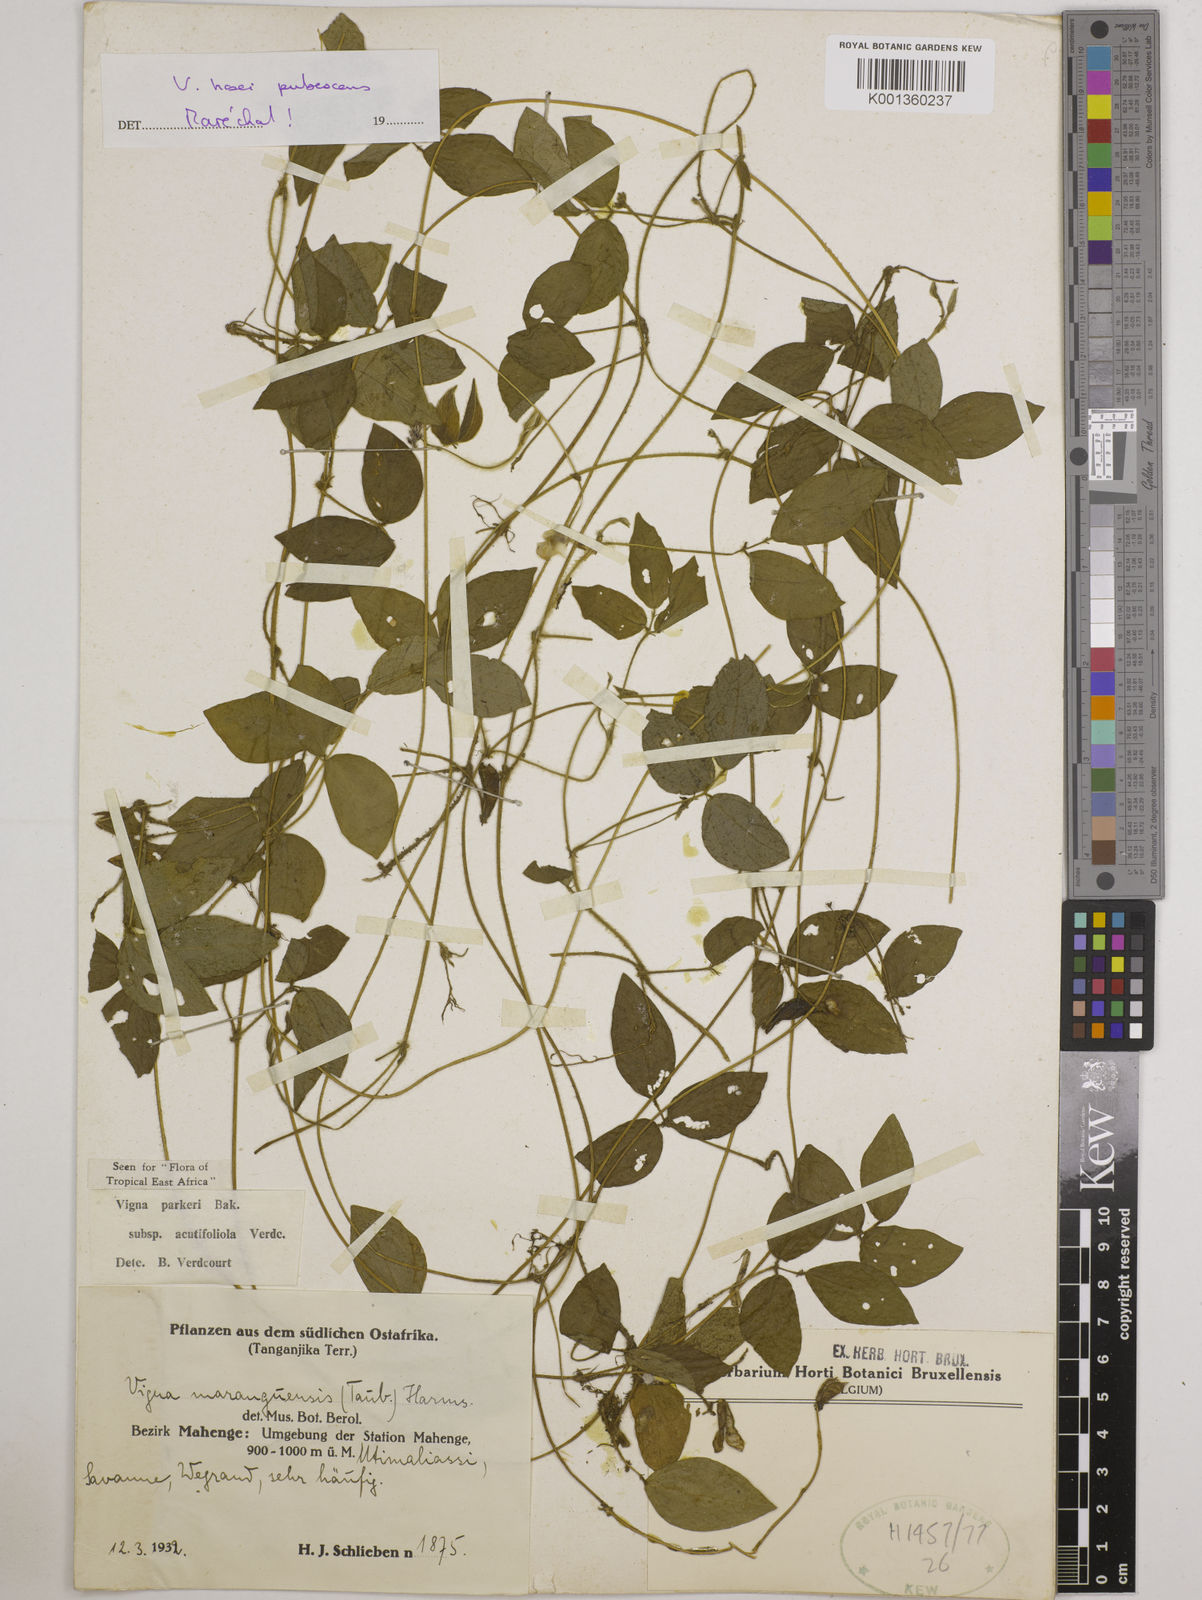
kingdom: Plantae
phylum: Tracheophyta
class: Magnoliopsida
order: Fabales
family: Fabaceae
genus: Vigna
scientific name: Vigna hosei
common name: Sarawak-bean
